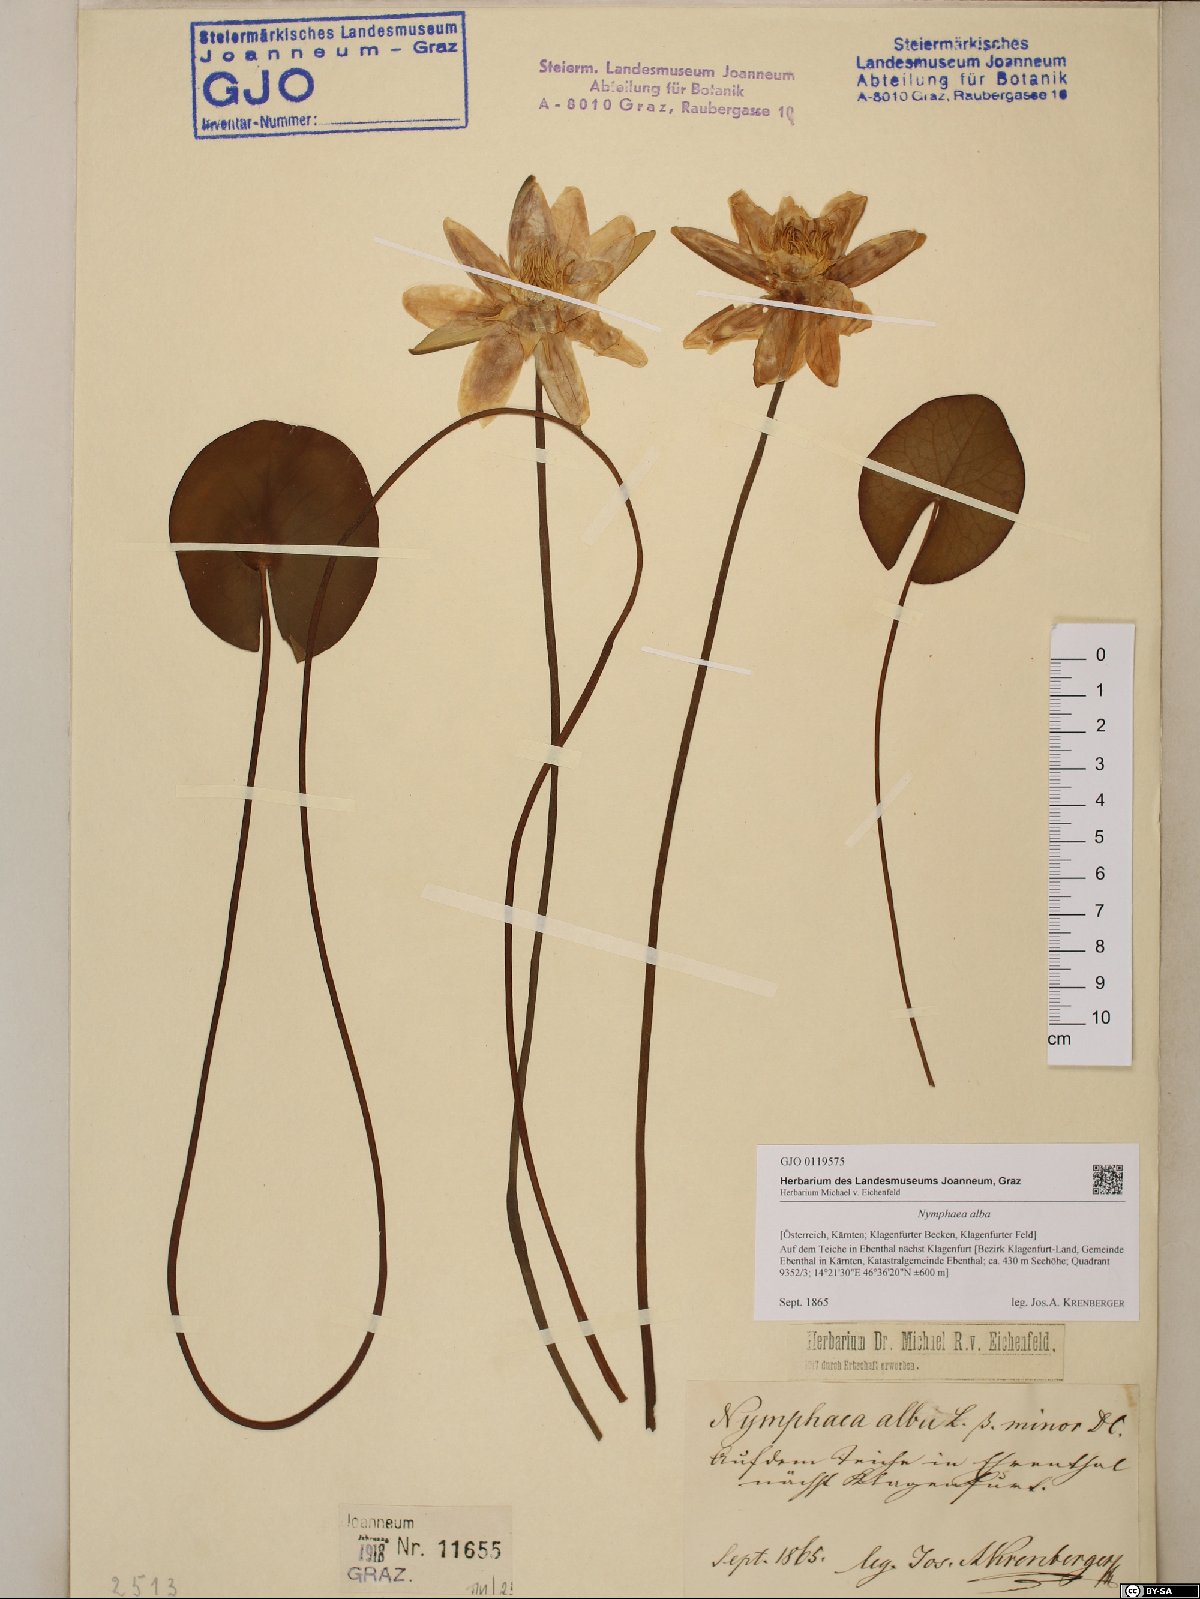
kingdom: Plantae
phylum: Tracheophyta
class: Magnoliopsida
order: Nymphaeales
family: Nymphaeaceae
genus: Nymphaea
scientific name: Nymphaea alba
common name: White water-lily
